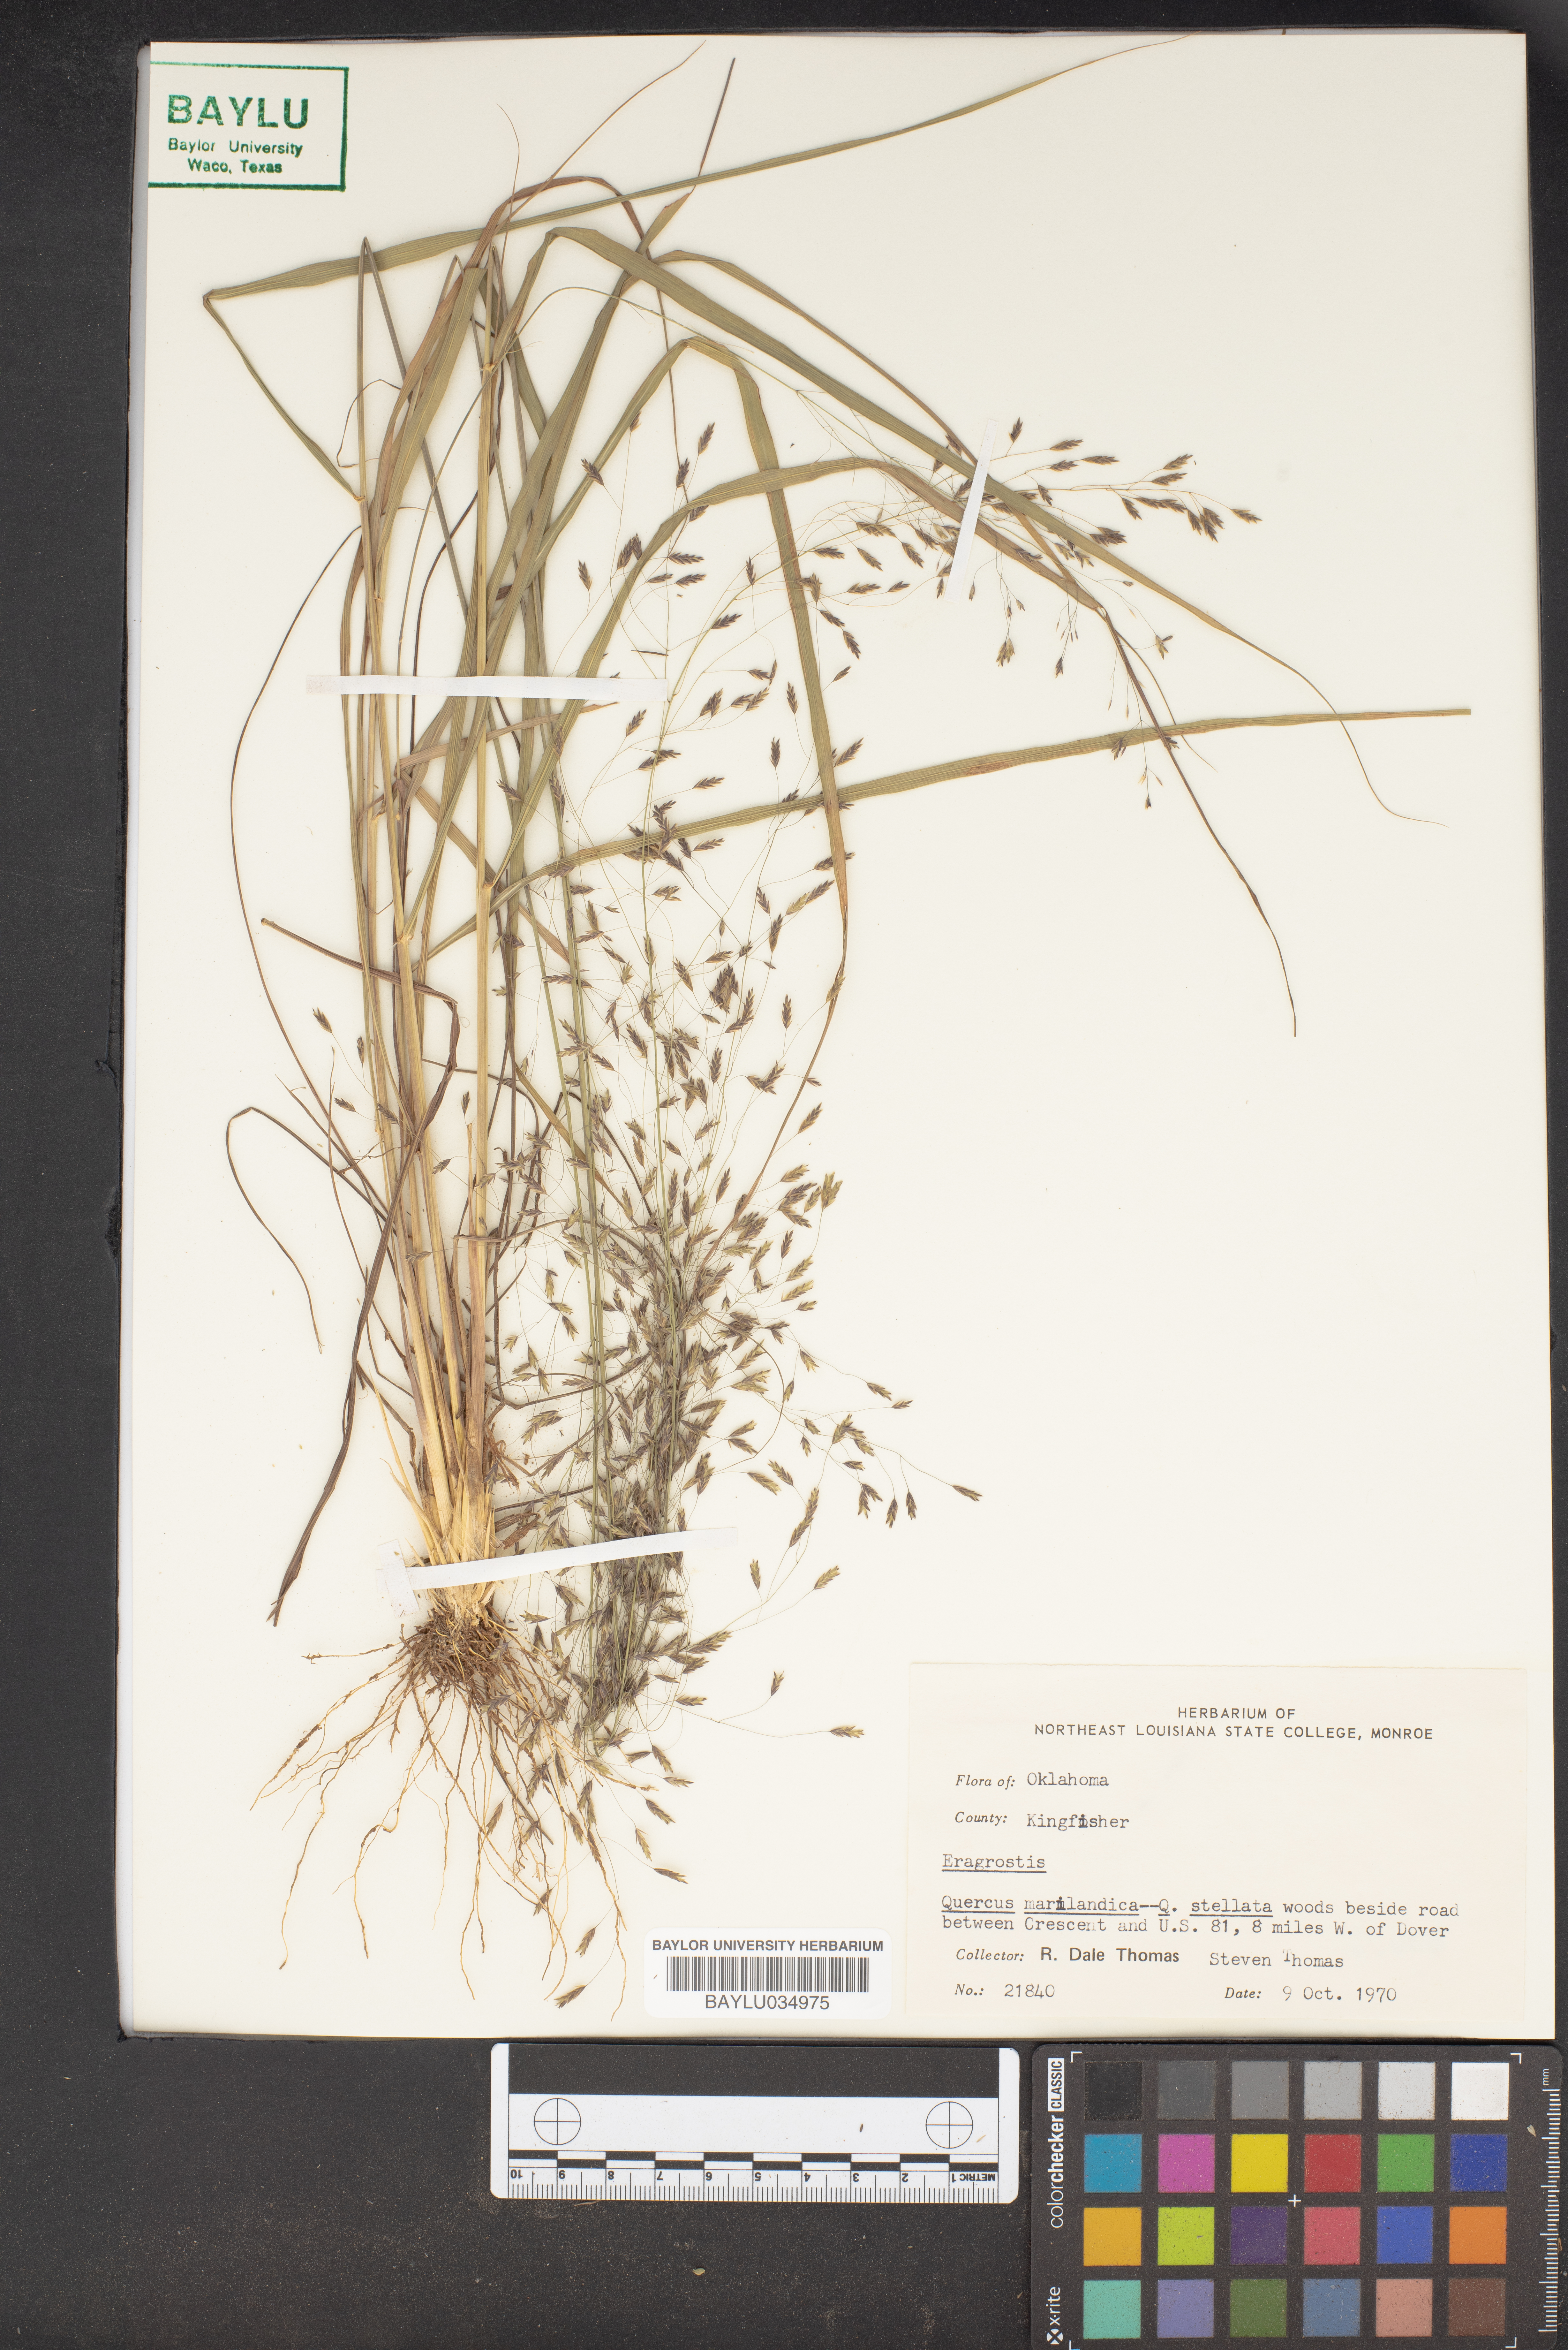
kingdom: Plantae
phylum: Tracheophyta
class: Magnoliopsida
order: Fagales
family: Fagaceae
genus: Quercus
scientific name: Quercus marilandica
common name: Blackjack oak
